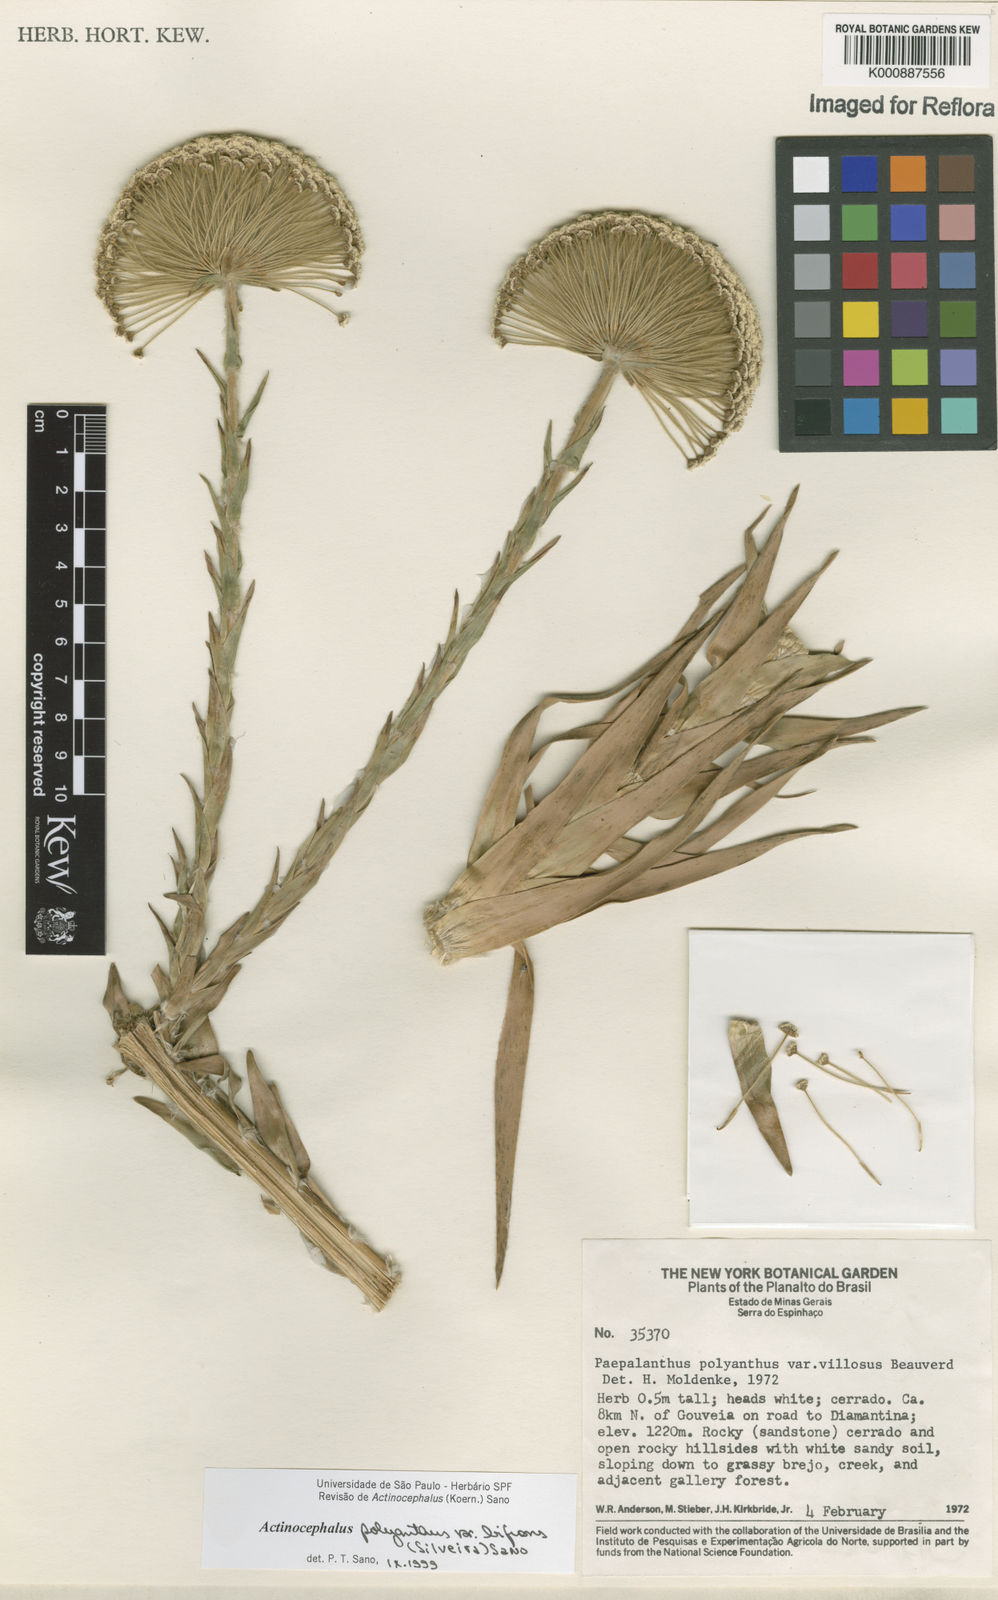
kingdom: Plantae
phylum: Tracheophyta
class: Liliopsida
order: Poales
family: Eriocaulaceae
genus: Paepalanthus
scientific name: Paepalanthus polyanthus
